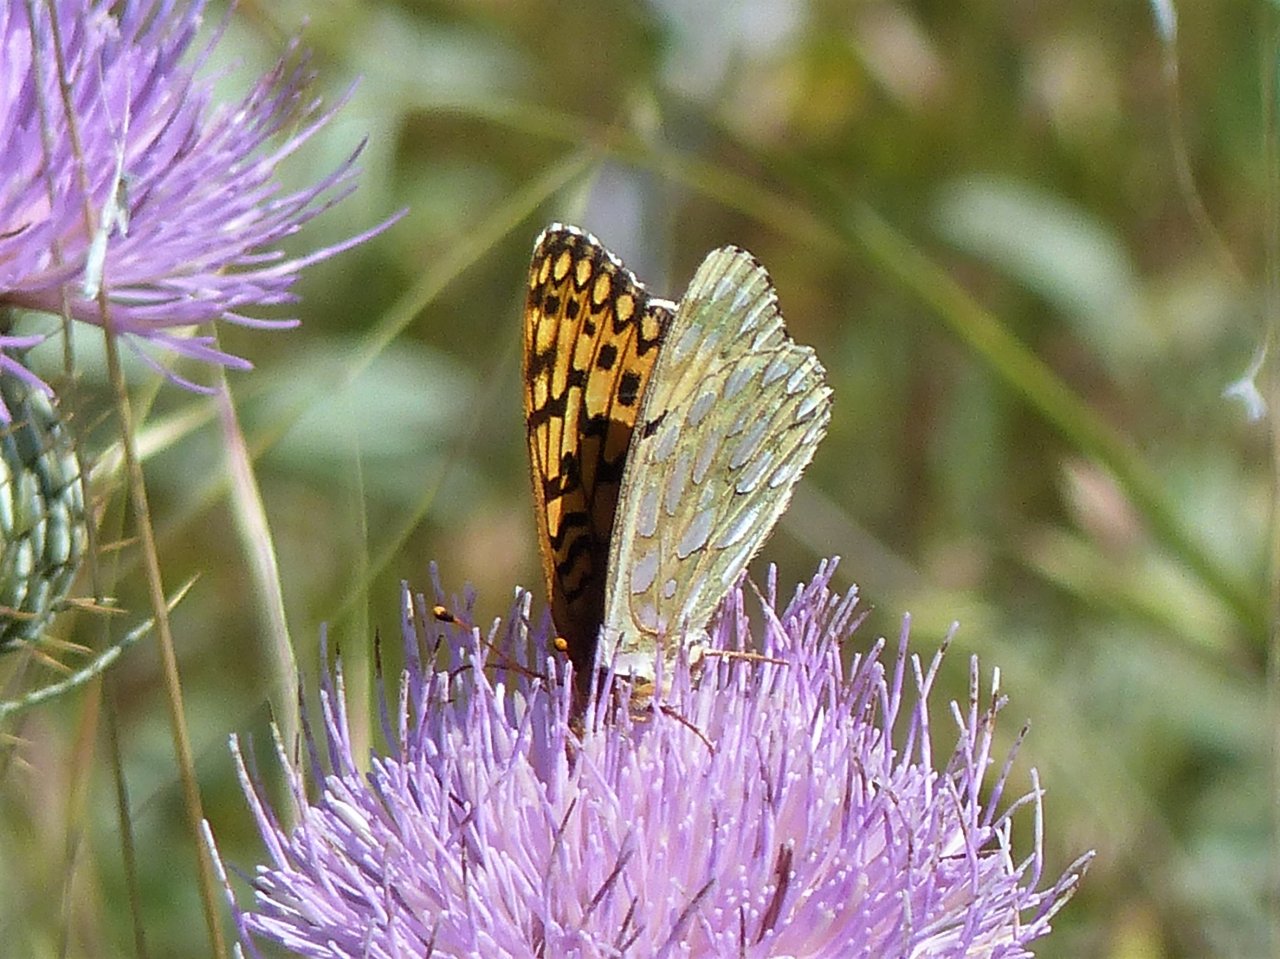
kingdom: Animalia
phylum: Arthropoda
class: Insecta
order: Lepidoptera
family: Nymphalidae
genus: Speyeria
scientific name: Speyeria callippe
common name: Callippe Fritillary
